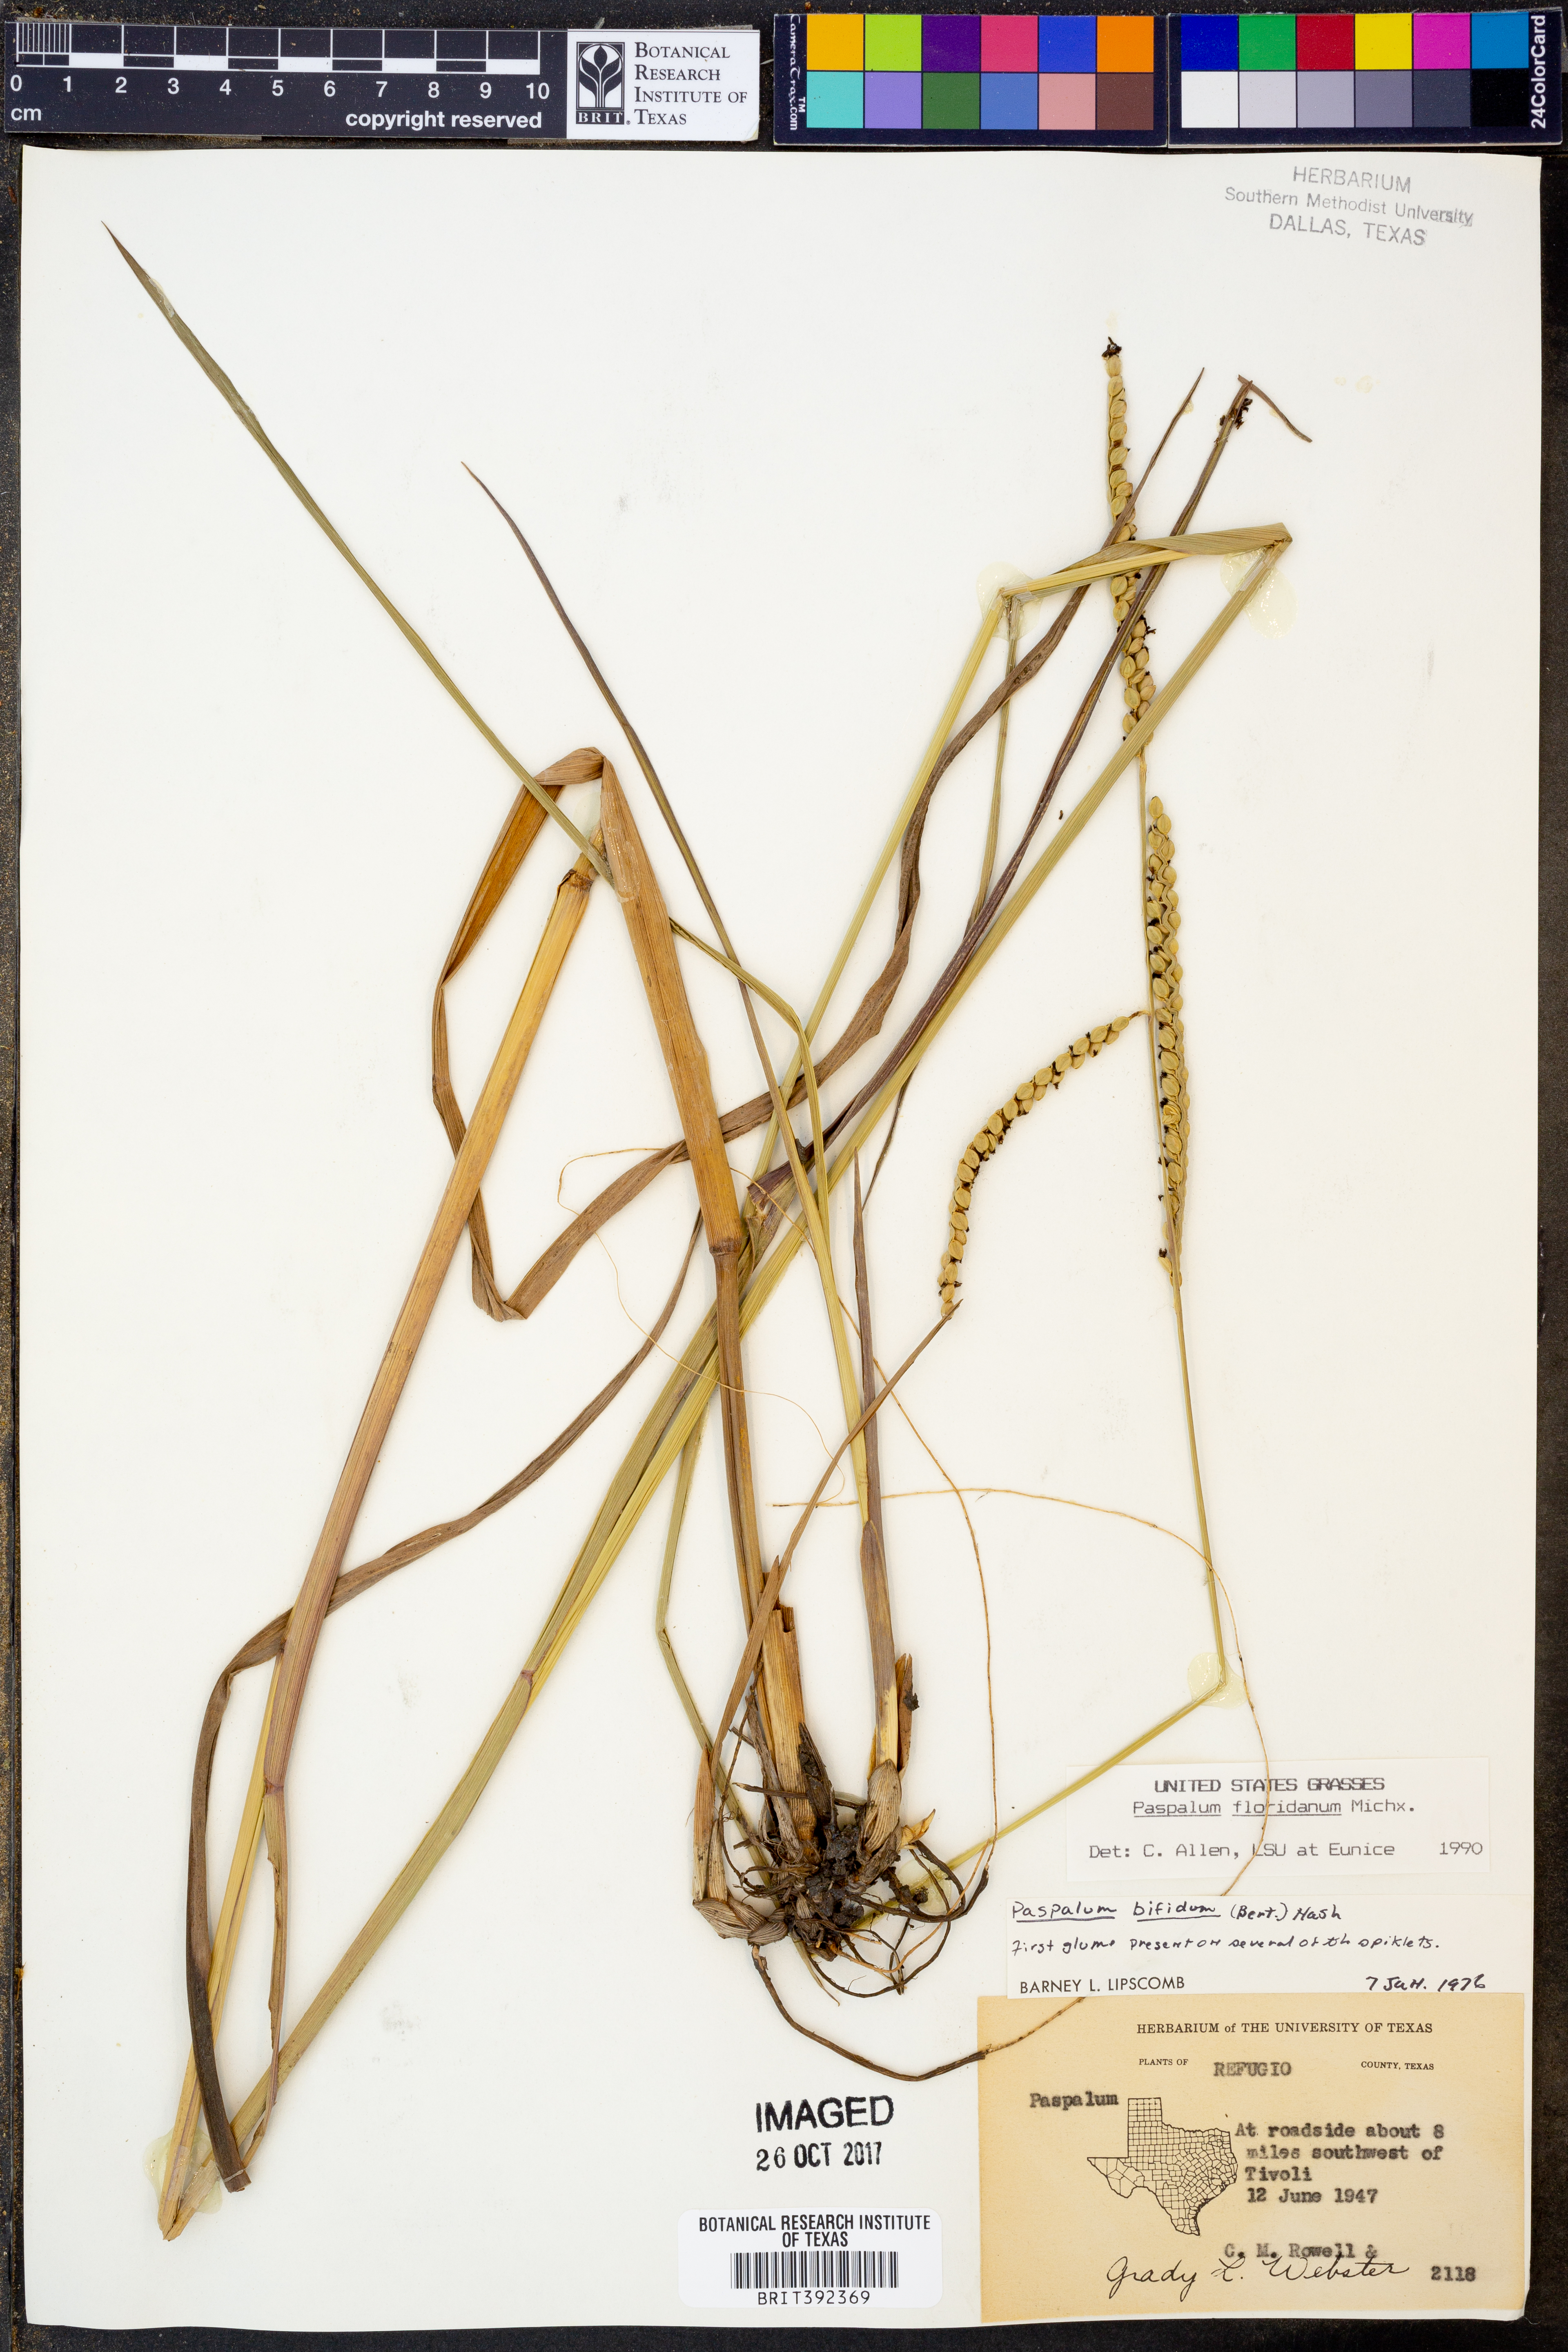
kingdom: Plantae
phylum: Tracheophyta
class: Liliopsida
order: Poales
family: Poaceae
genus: Paspalum
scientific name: Paspalum floridanum
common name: Florida paspalum
